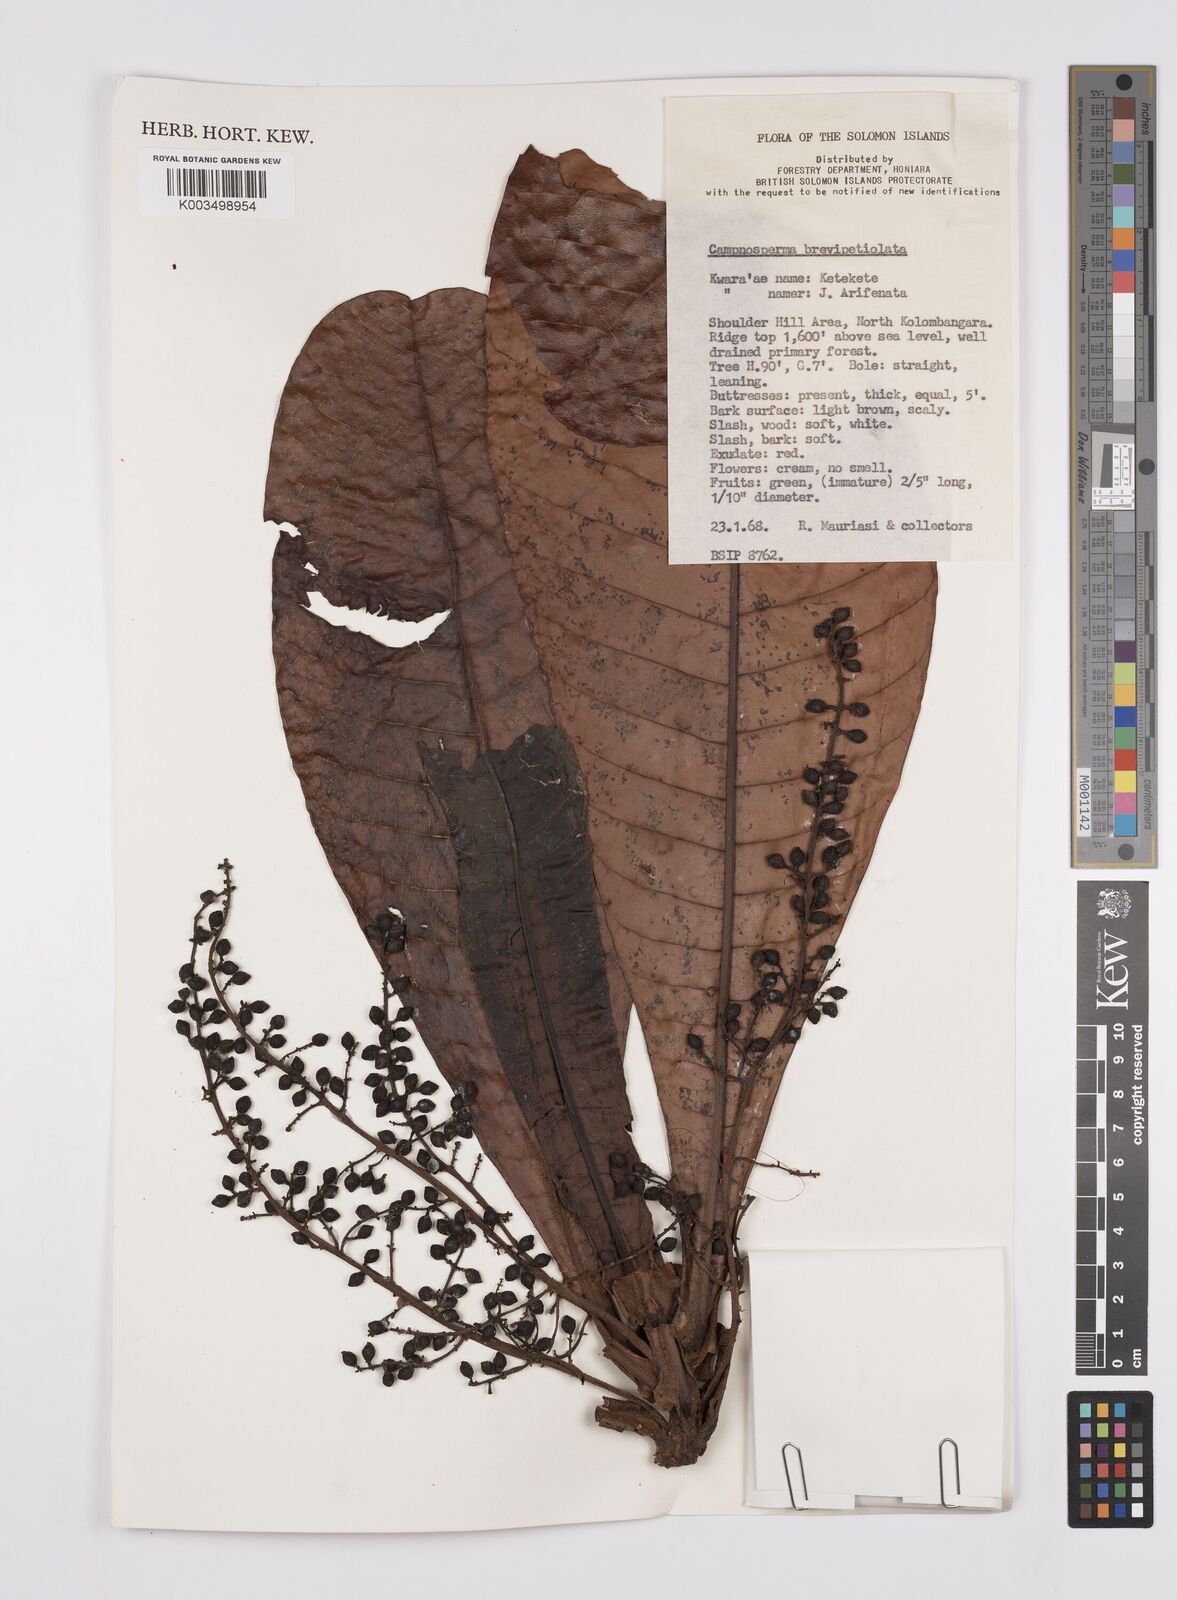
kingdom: Plantae
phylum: Tracheophyta
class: Magnoliopsida
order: Sapindales
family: Anacardiaceae
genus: Campnosperma
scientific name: Campnosperma brevipetiolatum
